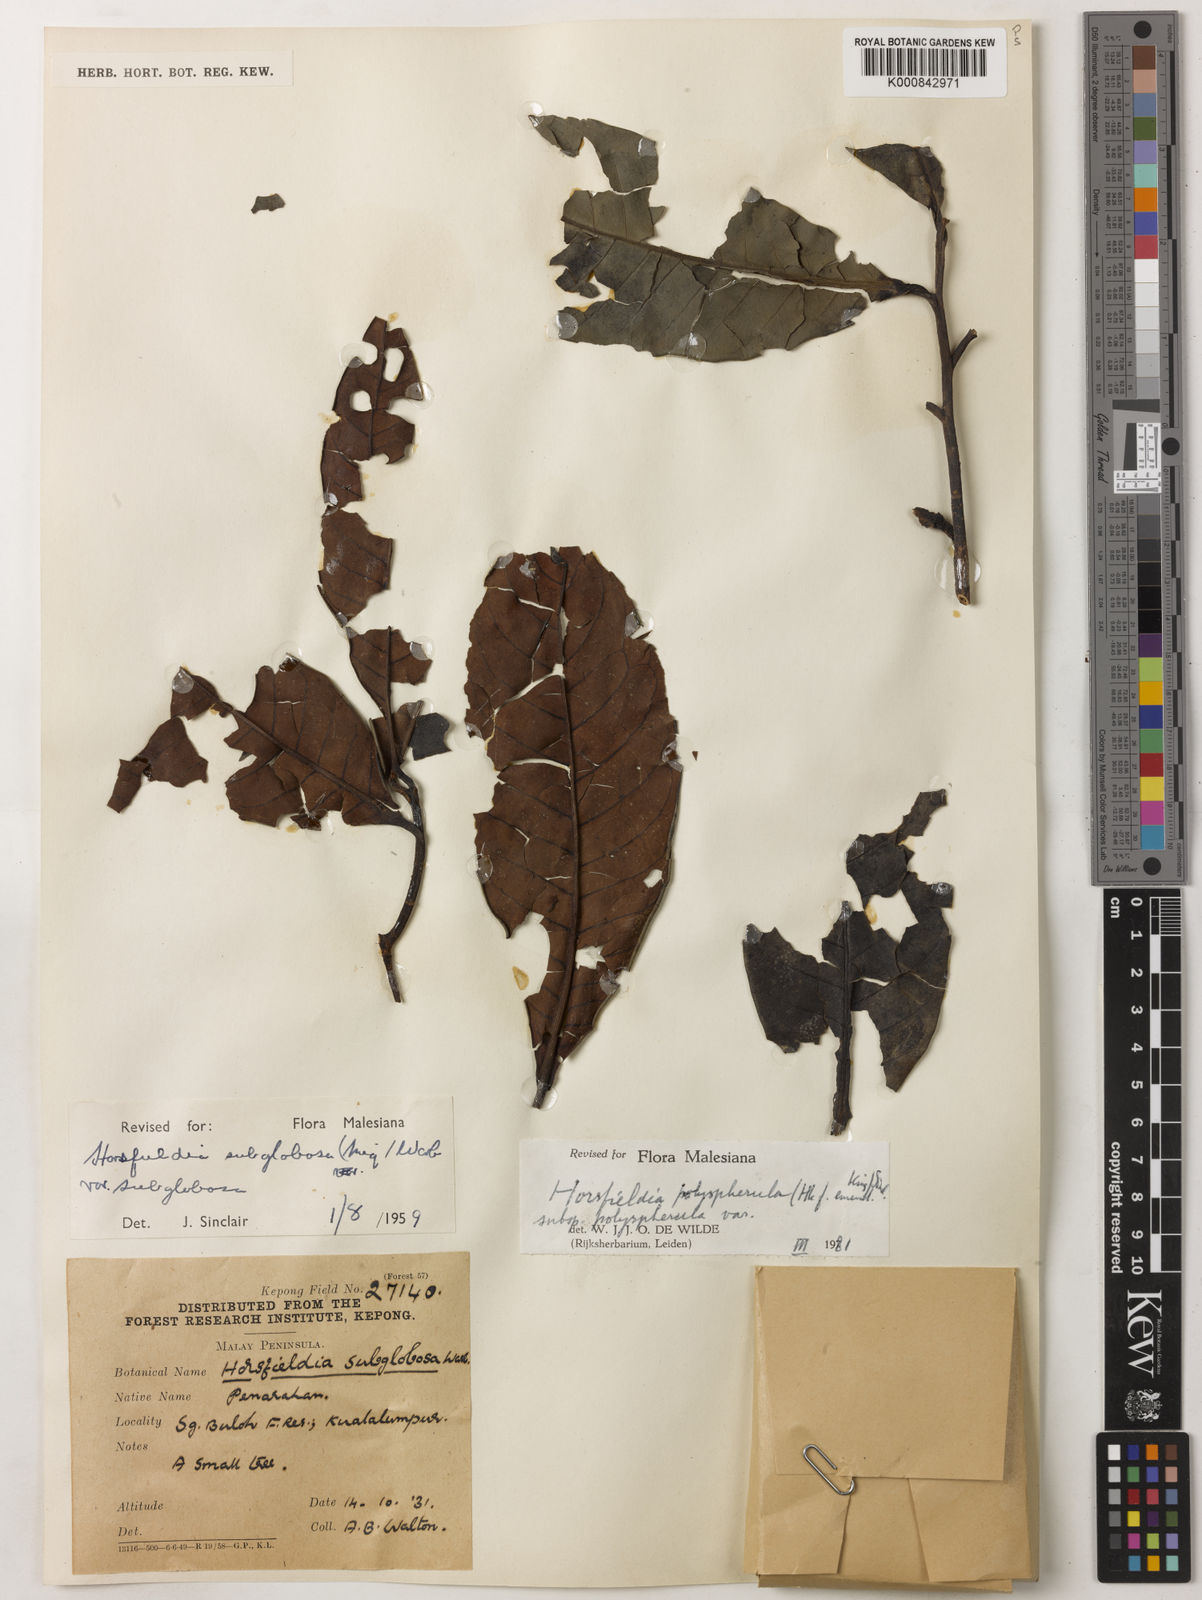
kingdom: Plantae
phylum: Tracheophyta
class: Magnoliopsida
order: Magnoliales
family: Myristicaceae
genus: Horsfieldia
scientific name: Horsfieldia
